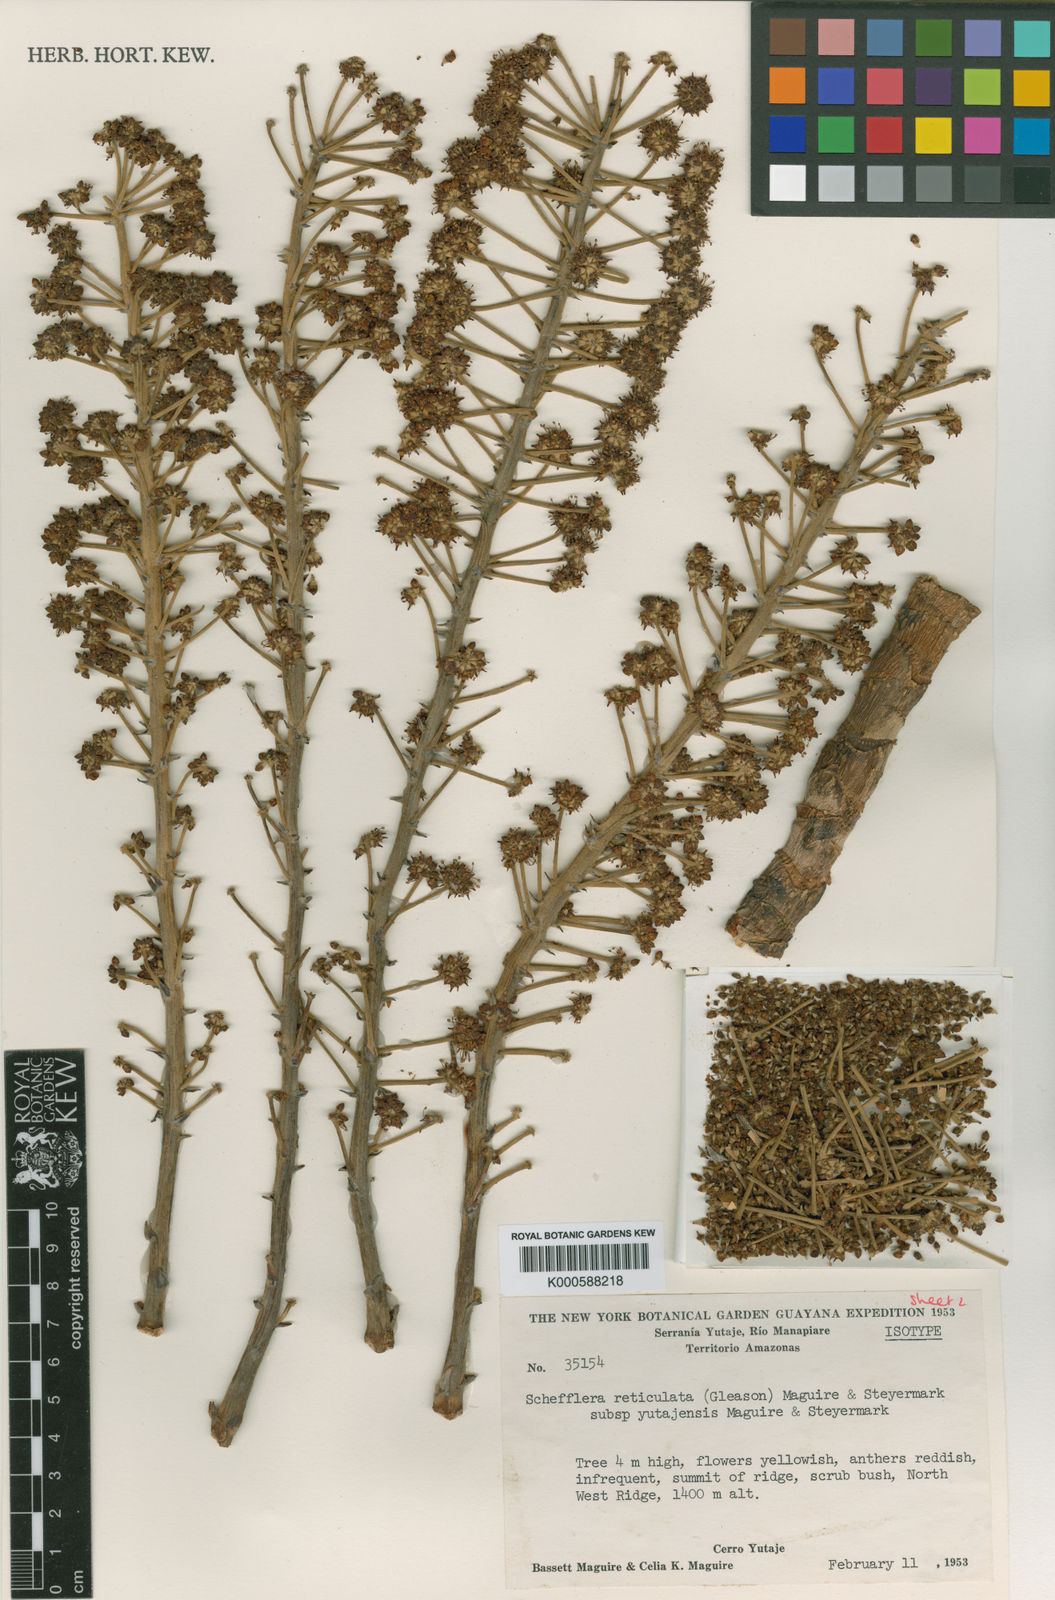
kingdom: Plantae
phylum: Tracheophyta
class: Magnoliopsida
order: Apiales
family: Araliaceae
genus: Schefflera
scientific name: Schefflera
